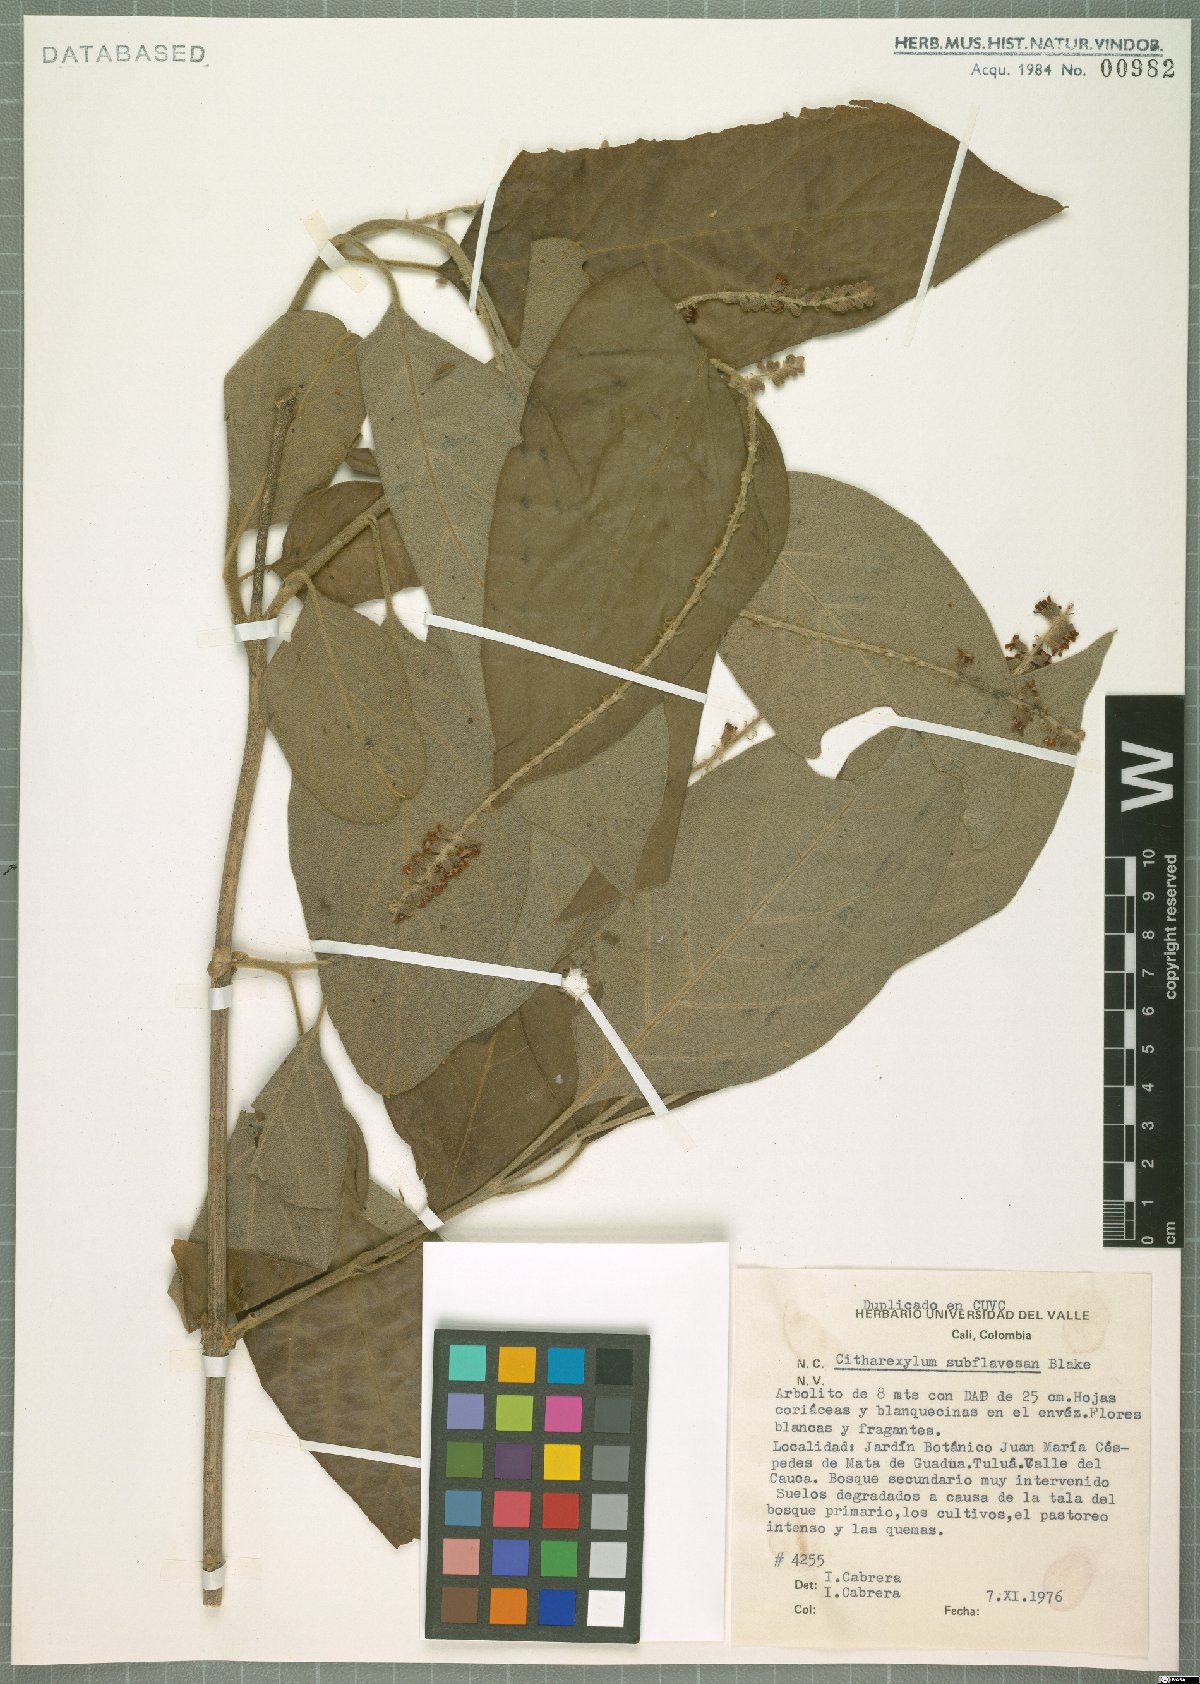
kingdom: Plantae
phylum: Tracheophyta
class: Magnoliopsida
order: Lamiales
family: Verbenaceae
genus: Citharexylum
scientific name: Citharexylum subflavescens
